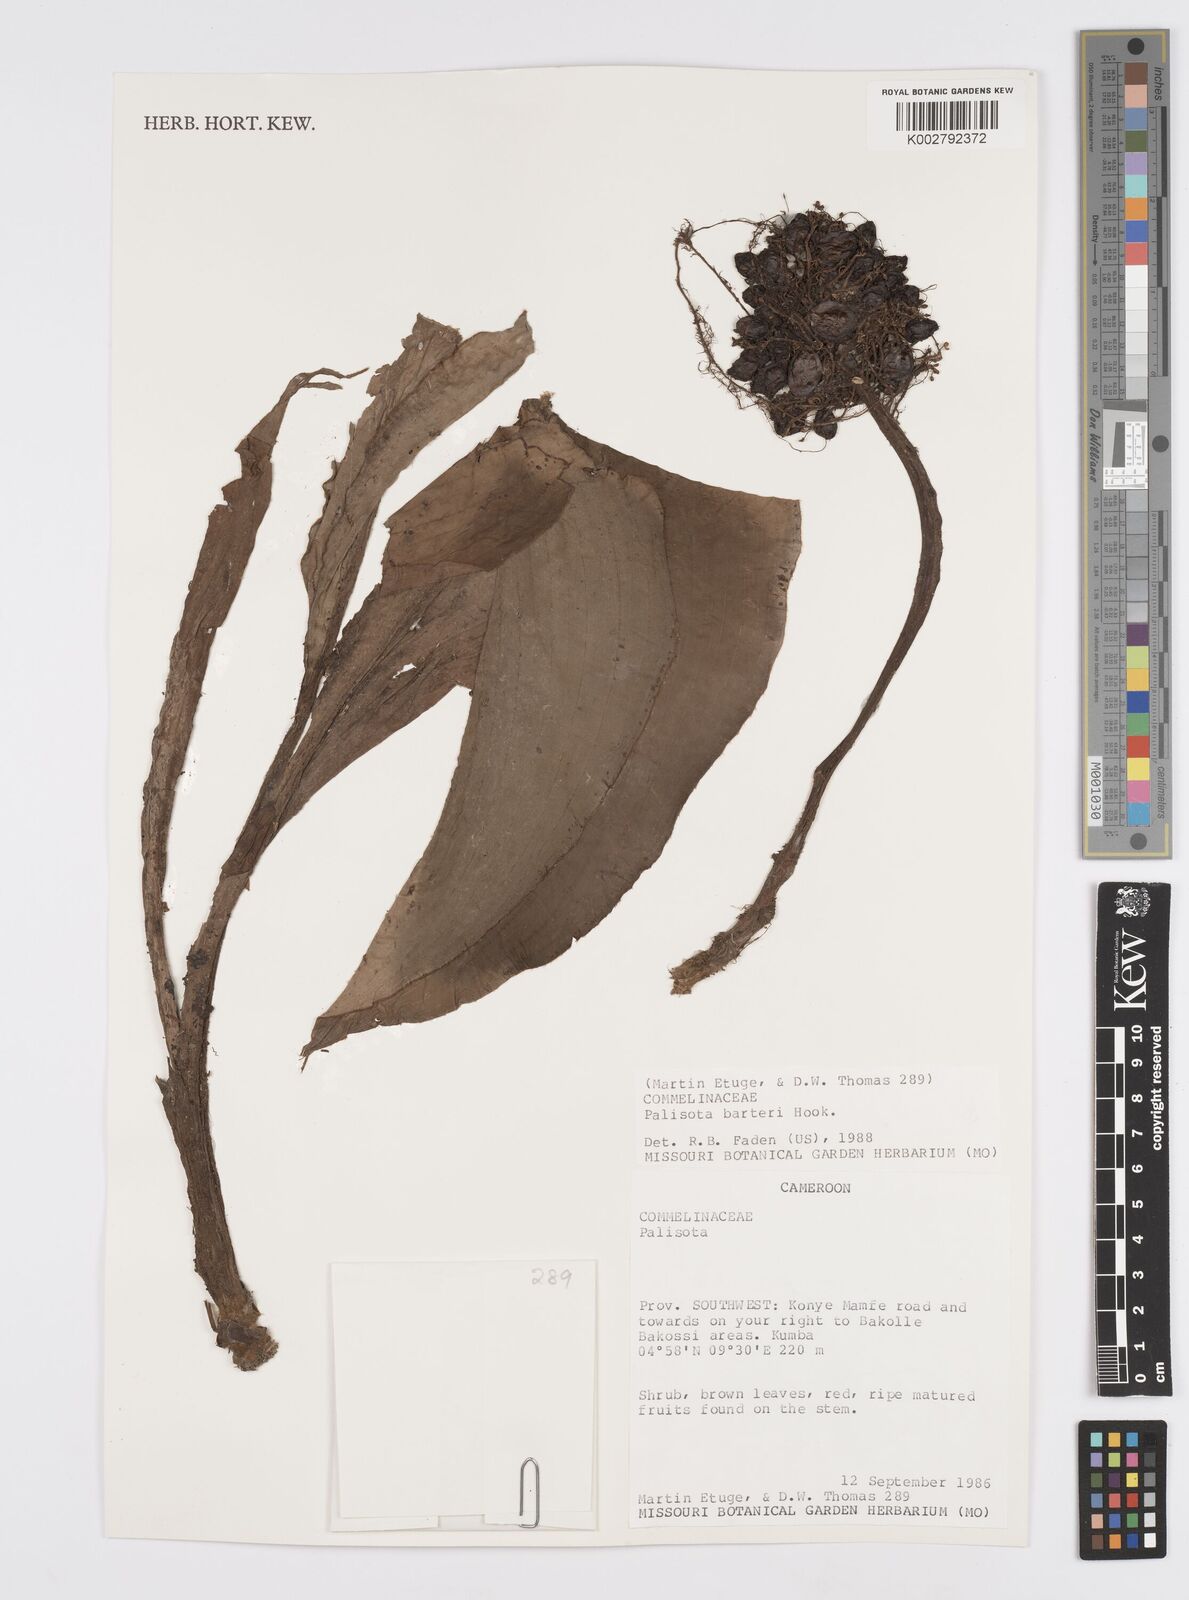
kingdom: Plantae
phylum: Tracheophyta
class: Liliopsida
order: Commelinales
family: Commelinaceae
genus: Palisota
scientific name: Palisota barteri
